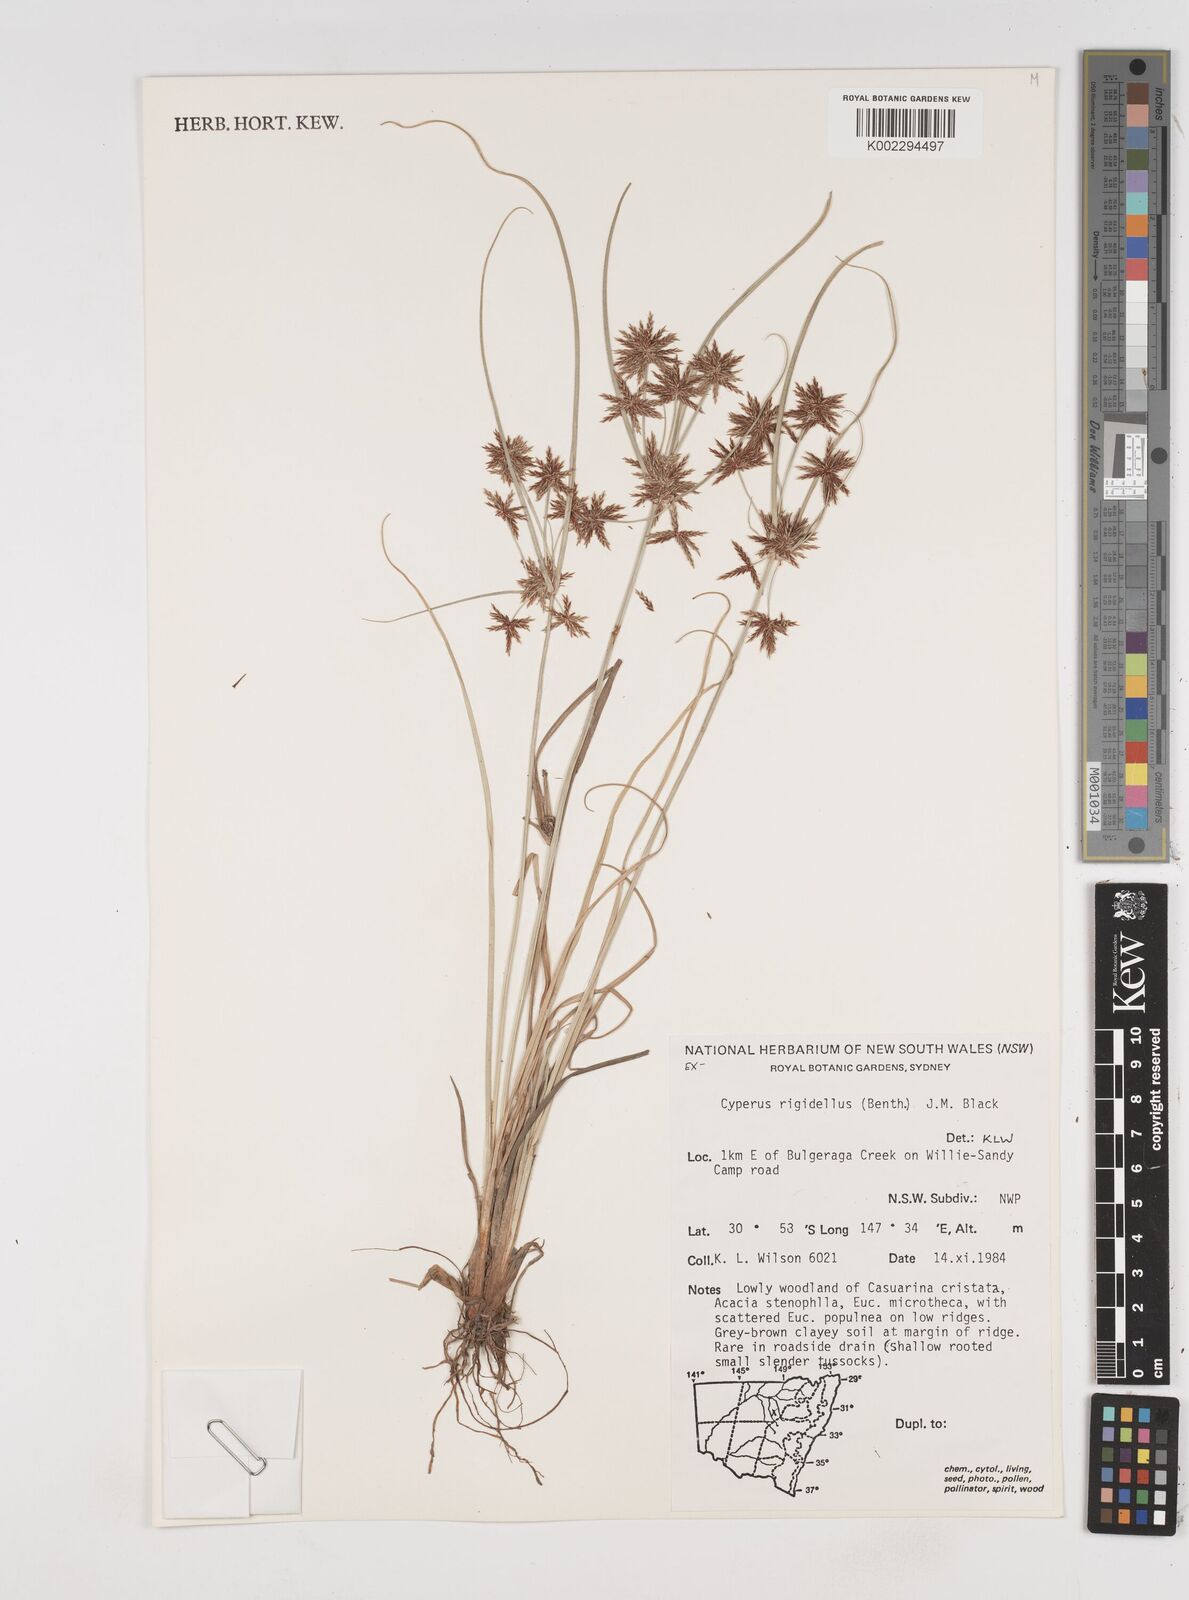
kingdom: Plantae
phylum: Tracheophyta
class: Liliopsida
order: Poales
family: Cyperaceae
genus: Cyperus
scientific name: Cyperus rigidellus
